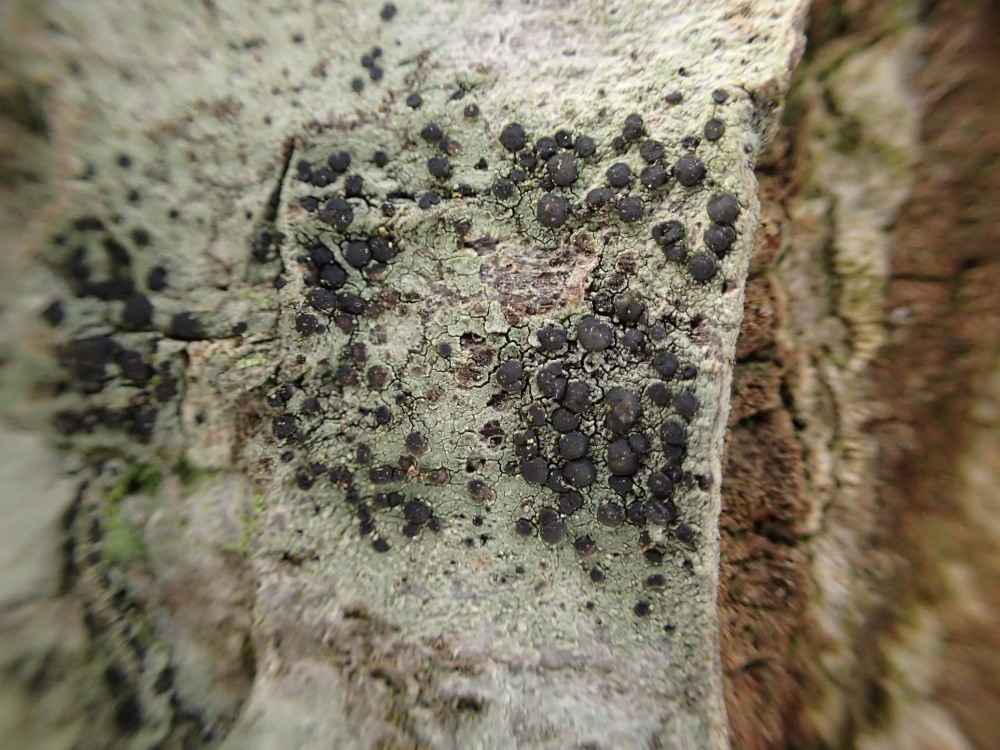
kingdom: Fungi
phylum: Ascomycota
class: Lecanoromycetes
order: Lecanorales
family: Lecanoraceae
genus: Lecidella
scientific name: Lecidella elaeochroma
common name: grågrøn skivelav
